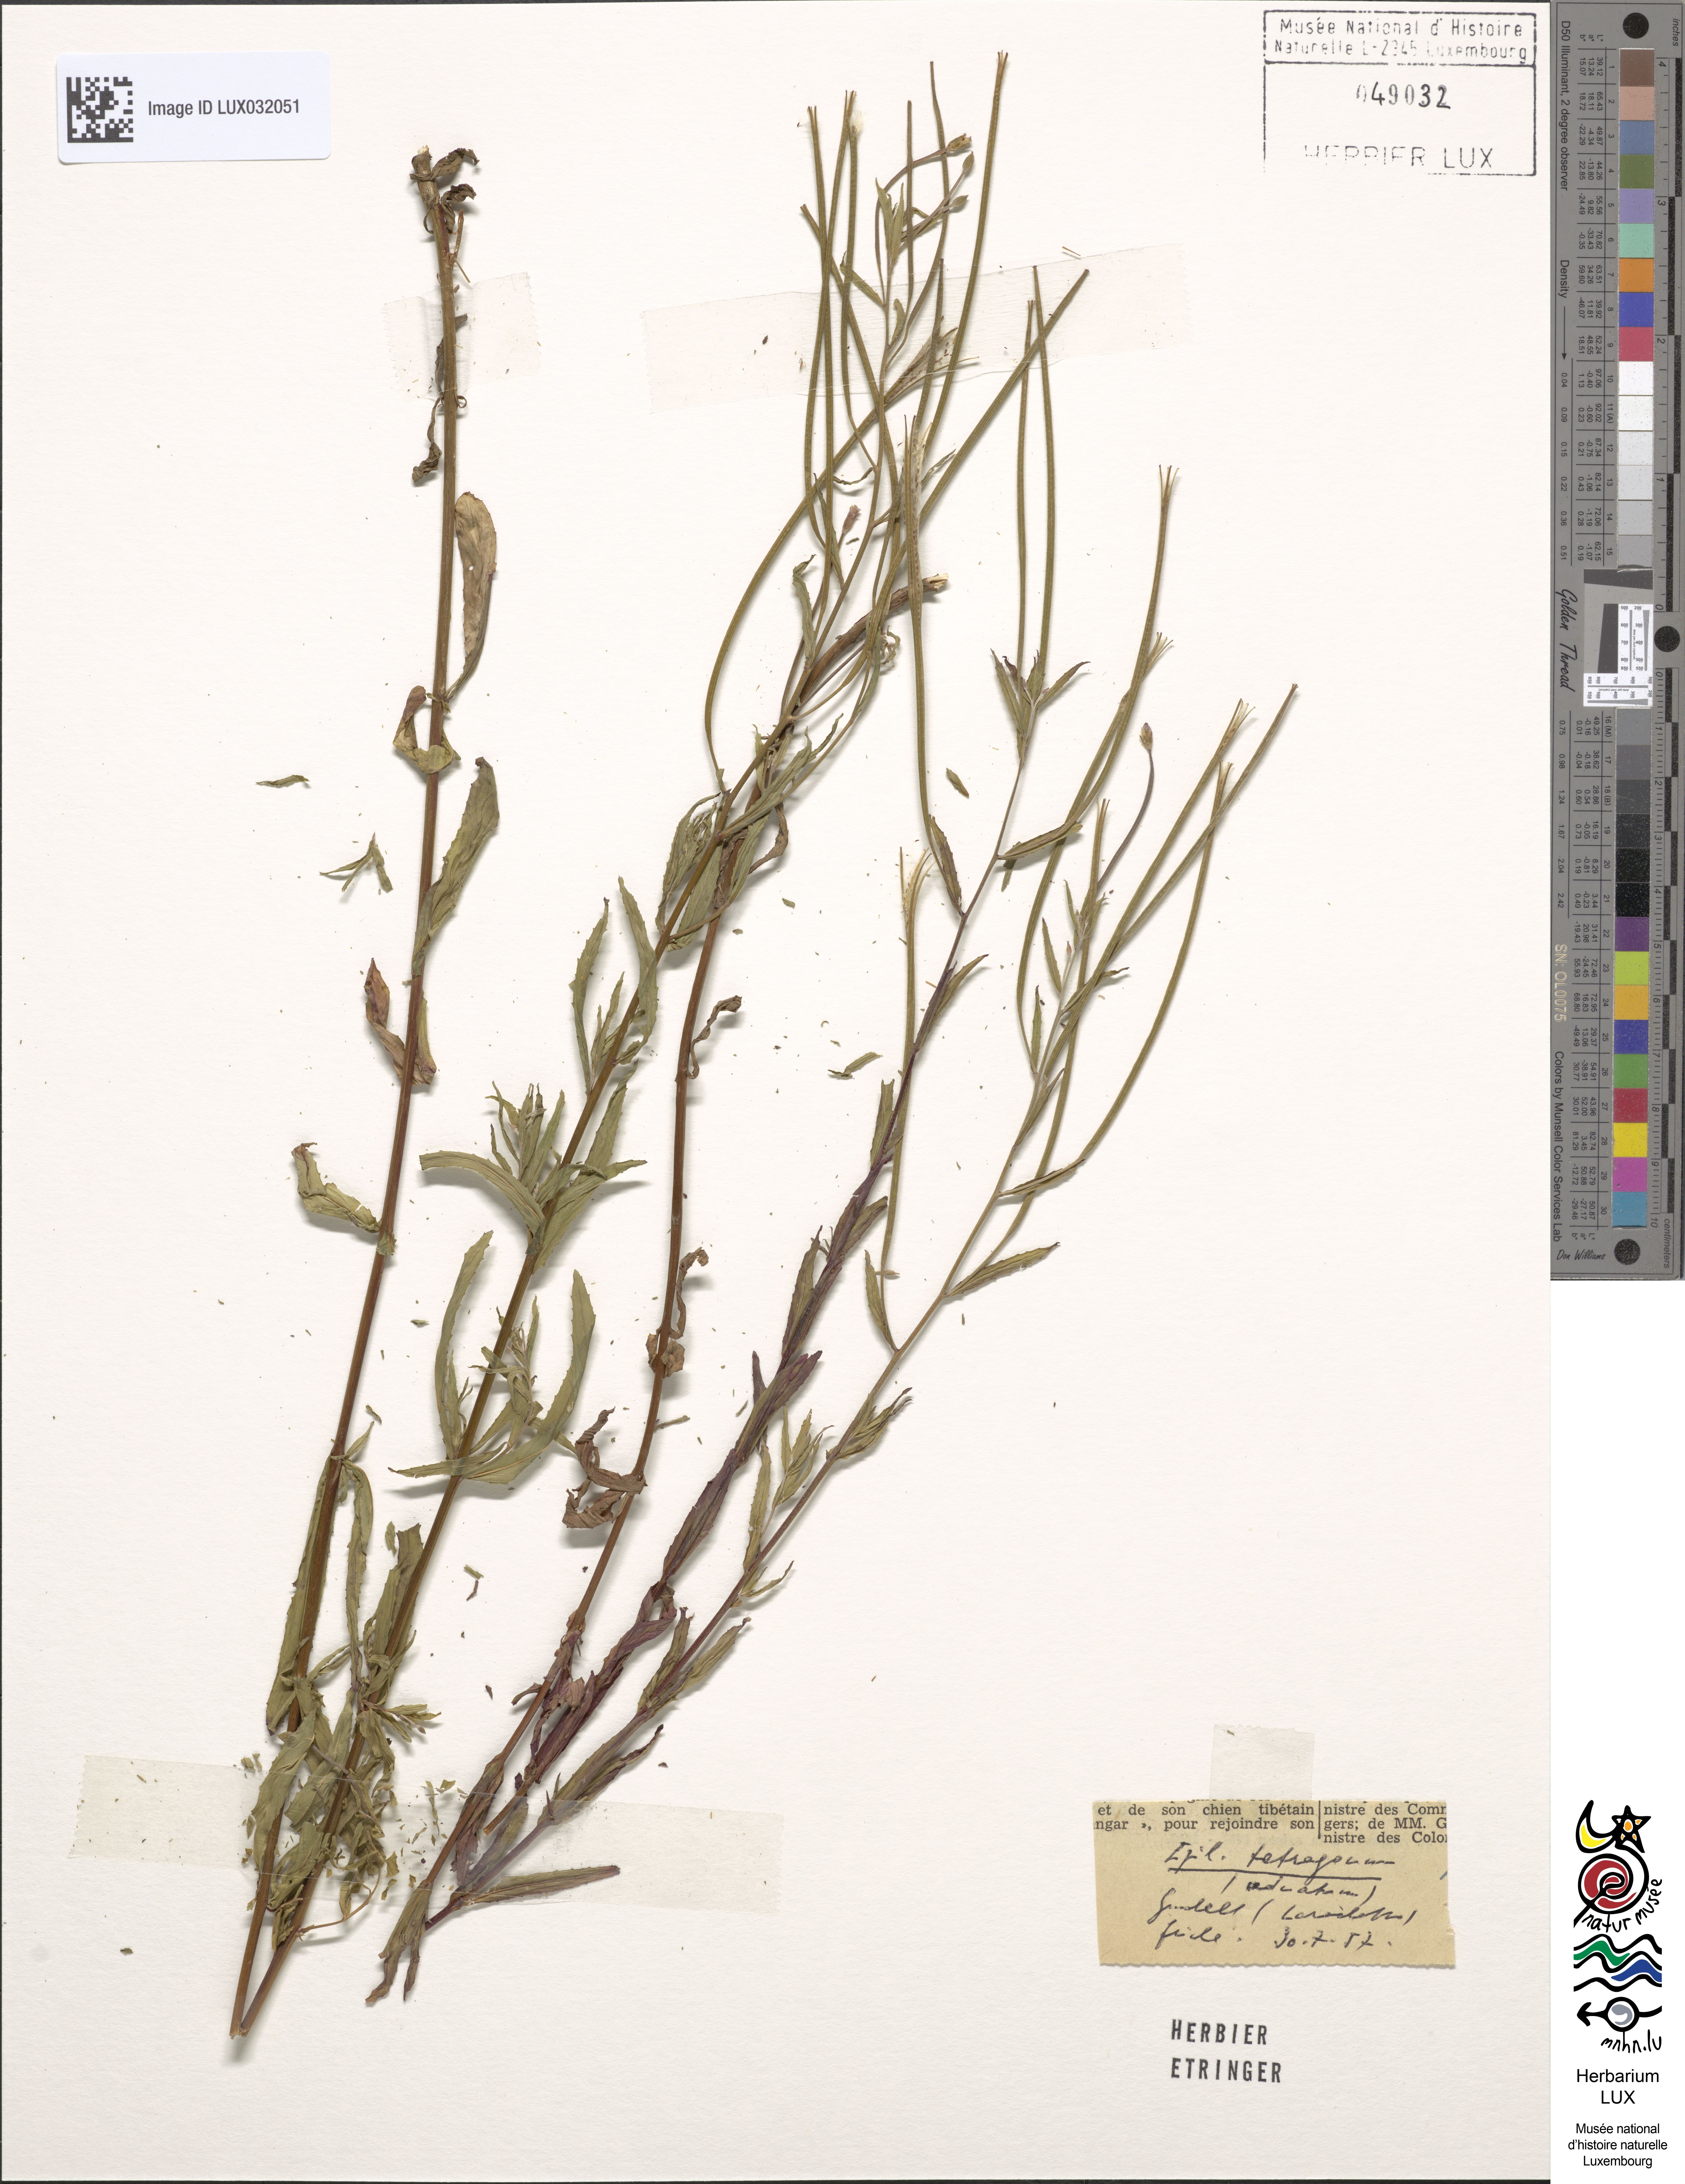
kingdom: Plantae
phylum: Tracheophyta
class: Magnoliopsida
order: Myrtales
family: Onagraceae
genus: Epilobium
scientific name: Epilobium tetragonum
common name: Square-stemmed willowherb
